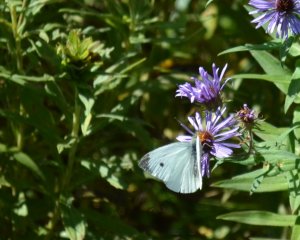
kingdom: Animalia
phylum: Arthropoda
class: Insecta
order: Lepidoptera
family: Pieridae
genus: Pieris
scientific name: Pieris rapae
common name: Cabbage White
